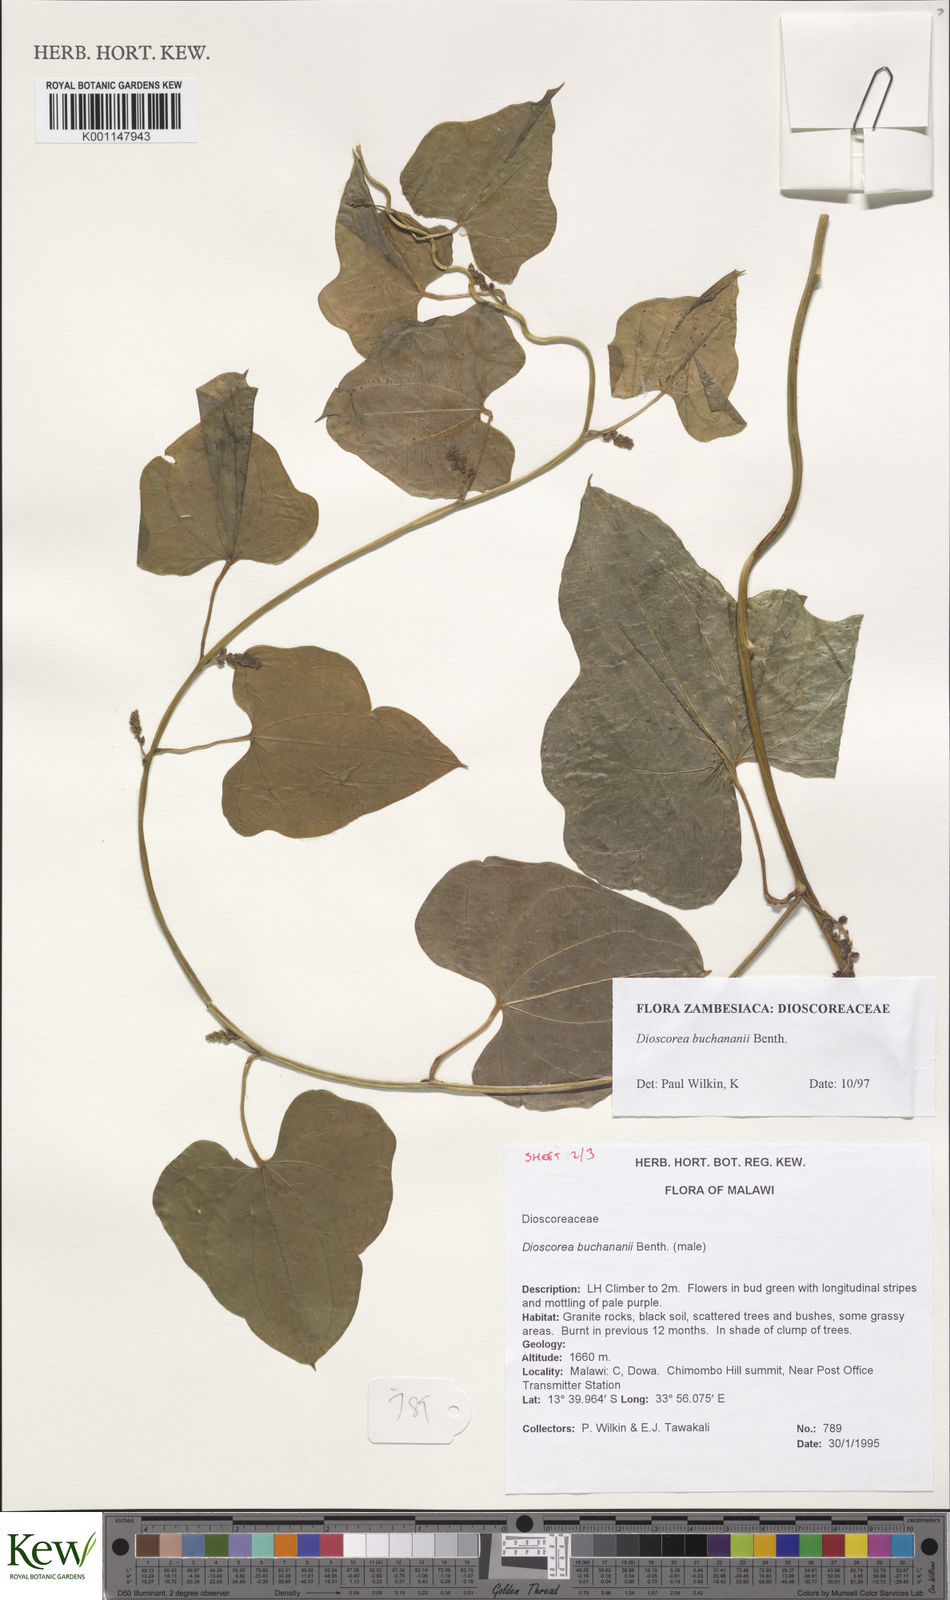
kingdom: Plantae
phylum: Tracheophyta
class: Liliopsida
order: Dioscoreales
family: Dioscoreaceae
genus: Dioscorea
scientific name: Dioscorea buchananii
